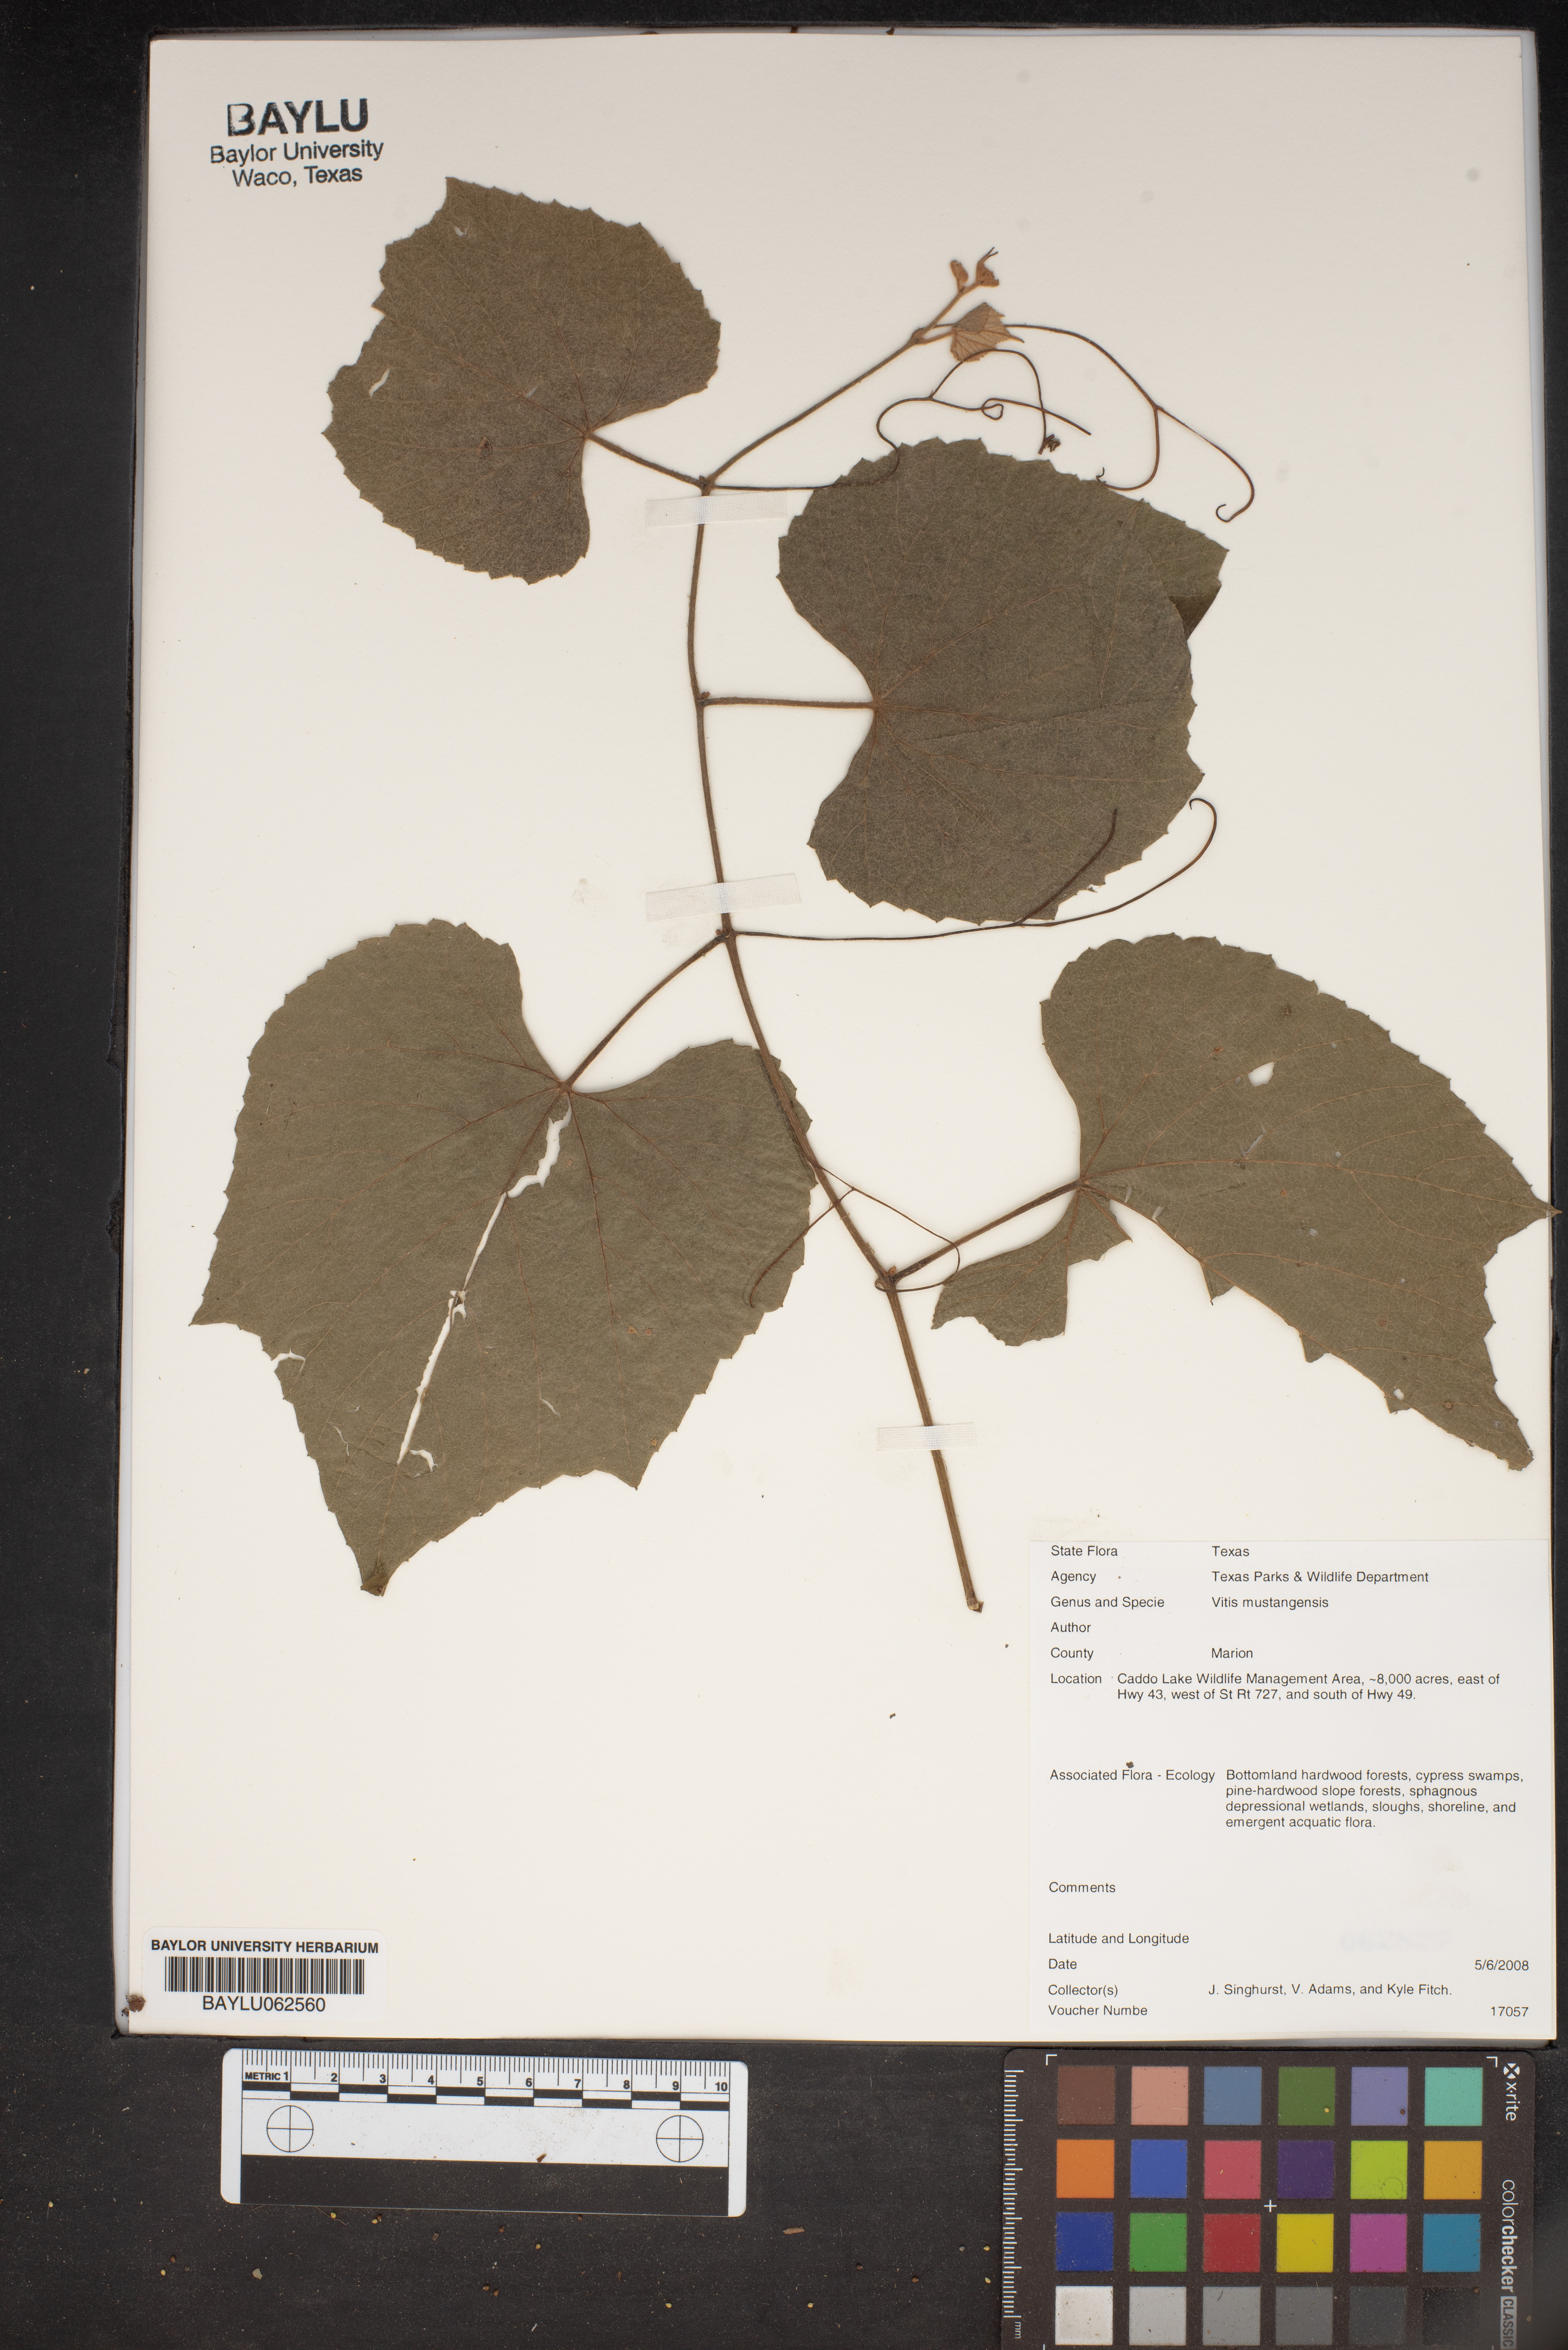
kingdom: Plantae
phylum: Tracheophyta
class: Magnoliopsida
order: Vitales
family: Vitaceae
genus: Vitis
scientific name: Vitis mustangensis
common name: Mustang grape
